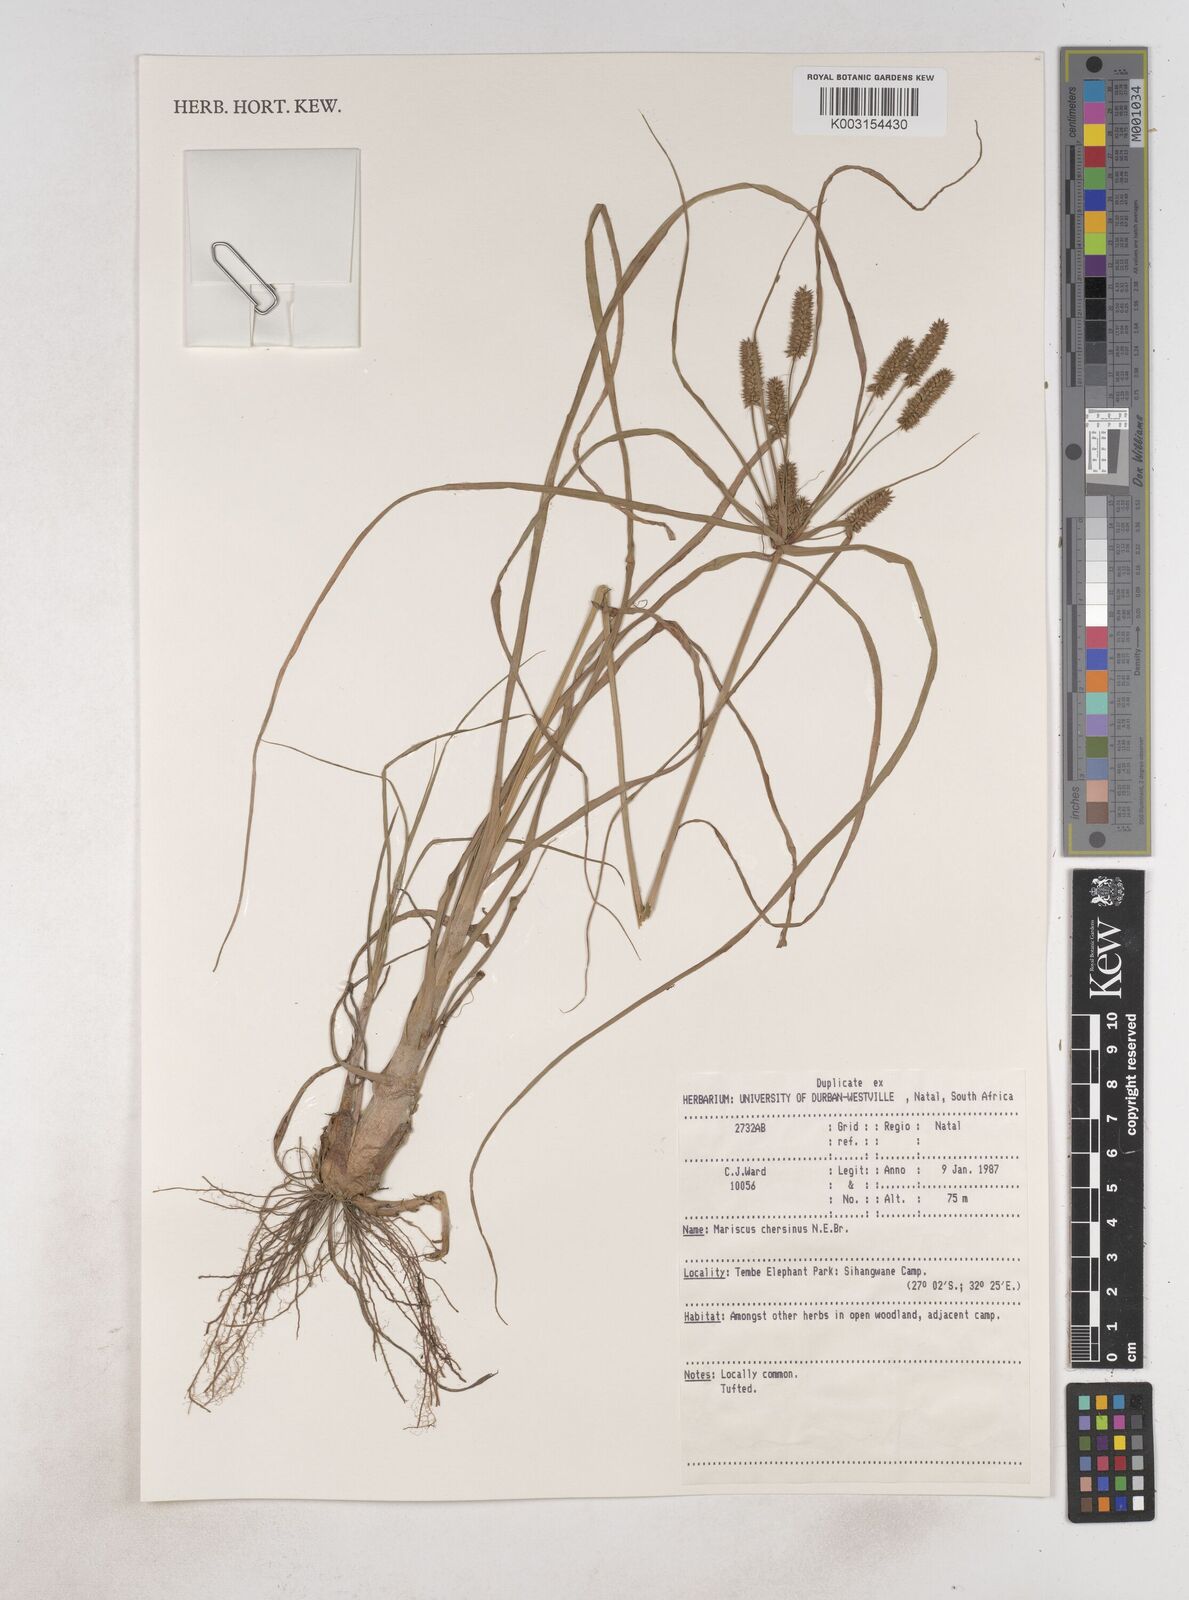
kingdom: Plantae
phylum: Tracheophyta
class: Liliopsida
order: Poales
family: Cyperaceae
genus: Cyperus
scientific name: Cyperus chersinus
